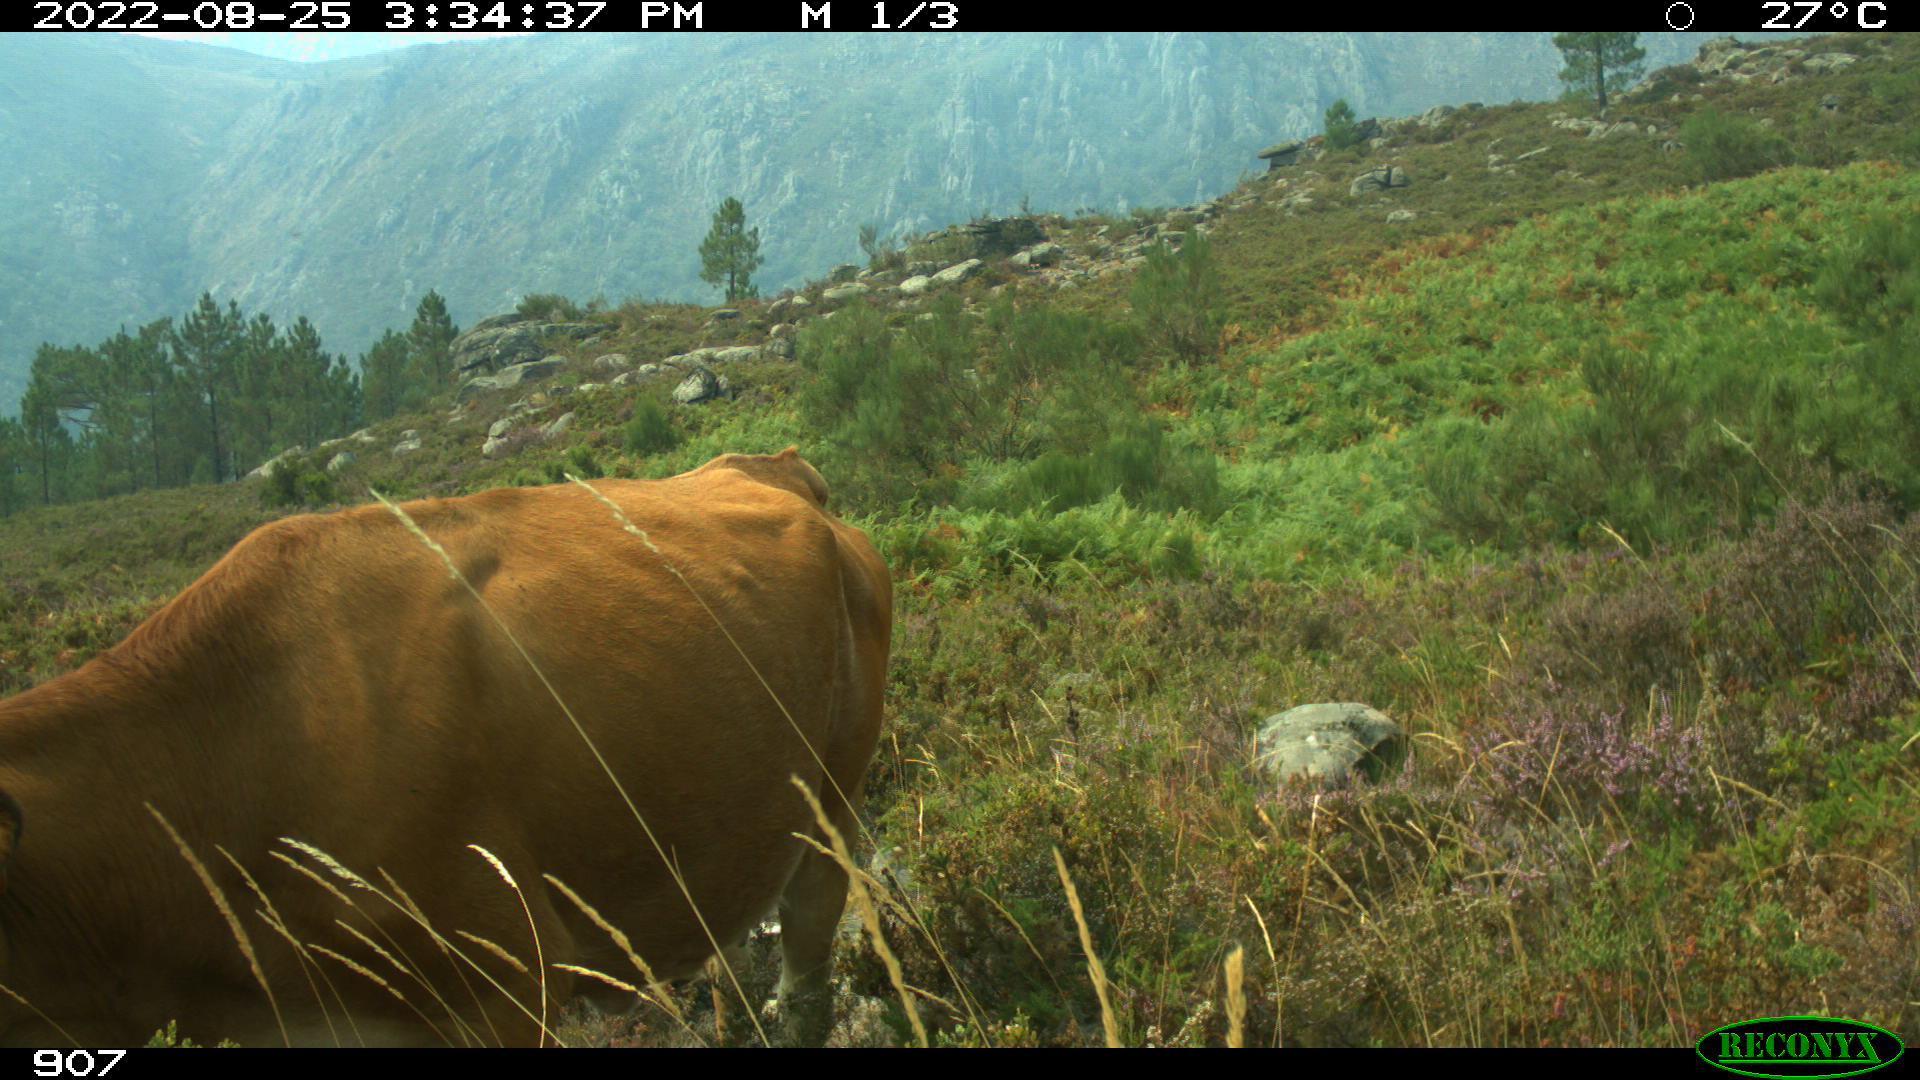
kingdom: Animalia
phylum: Chordata
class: Mammalia
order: Artiodactyla
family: Bovidae
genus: Bos
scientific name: Bos taurus
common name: Domesticated cattle
